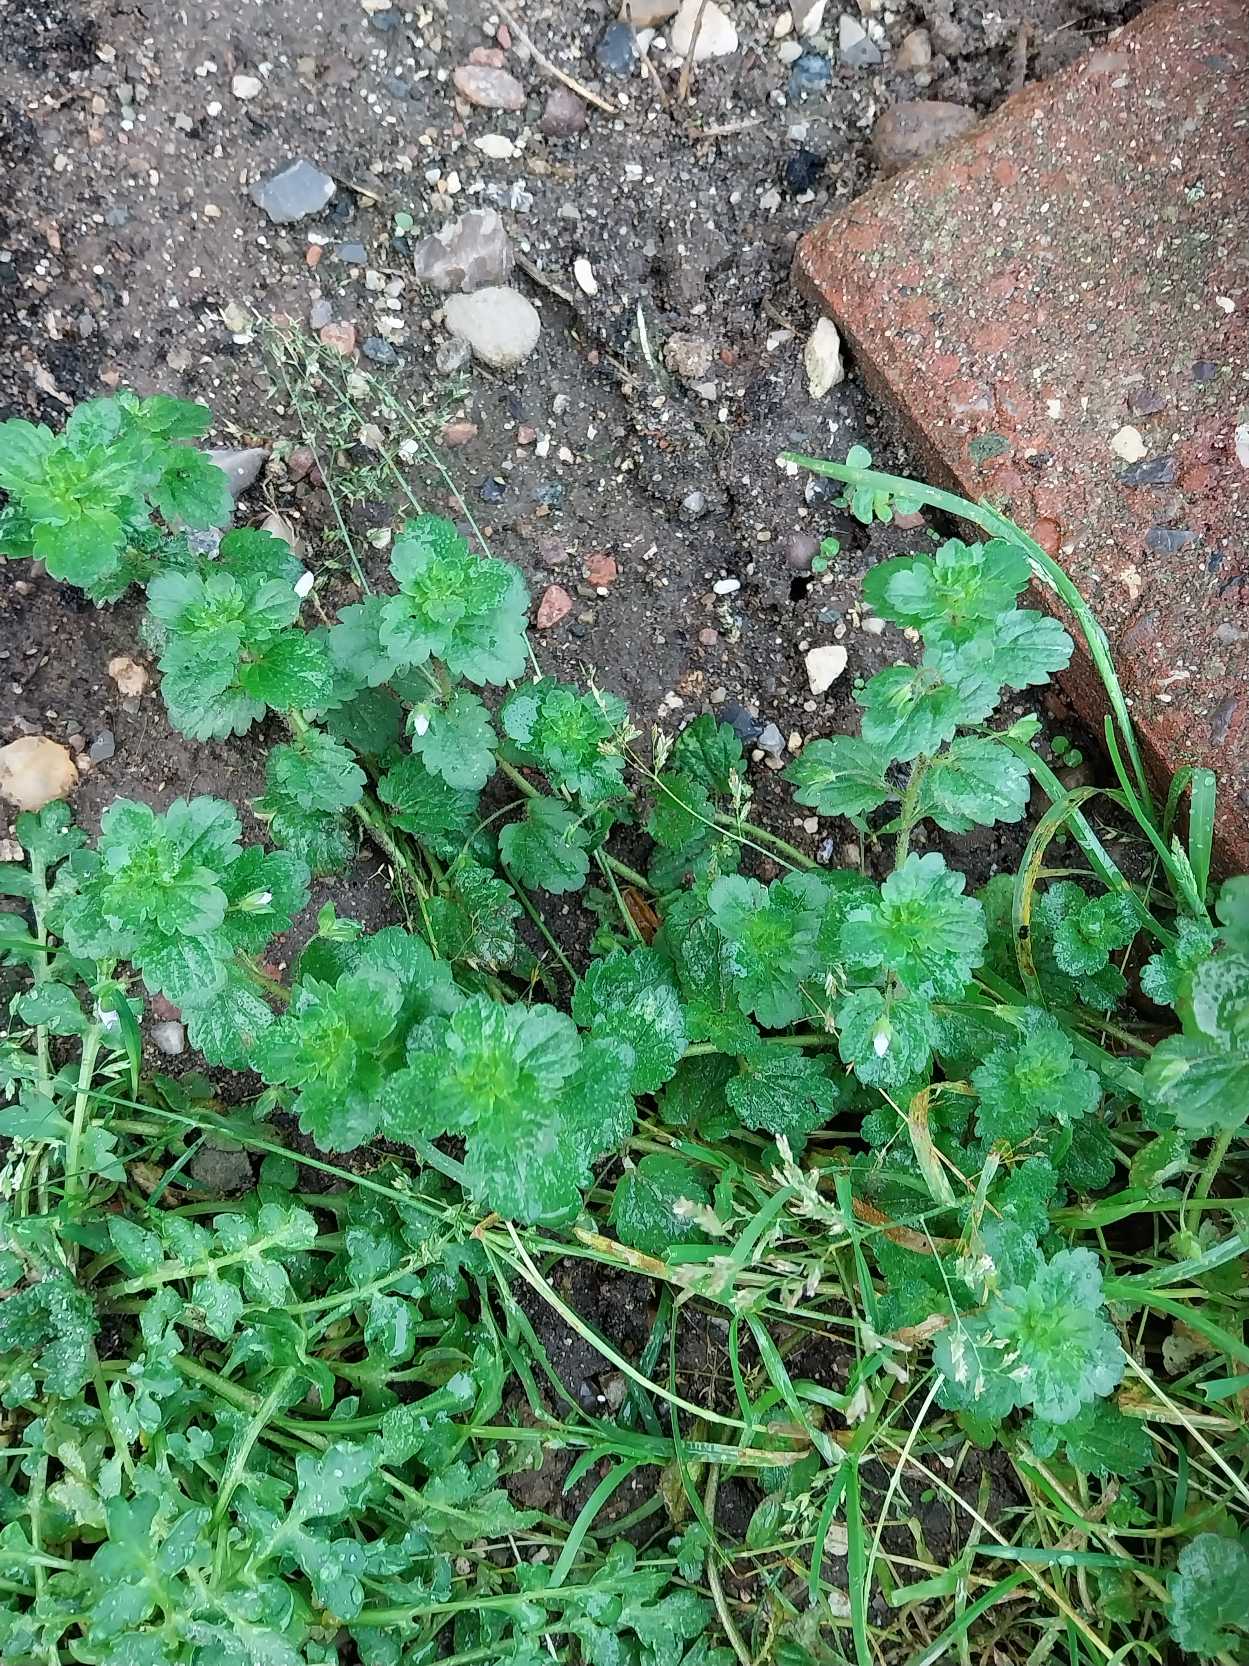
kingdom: Plantae
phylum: Tracheophyta
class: Magnoliopsida
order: Lamiales
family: Plantaginaceae
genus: Veronica
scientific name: Veronica persica
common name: Storkronet ærenpris
